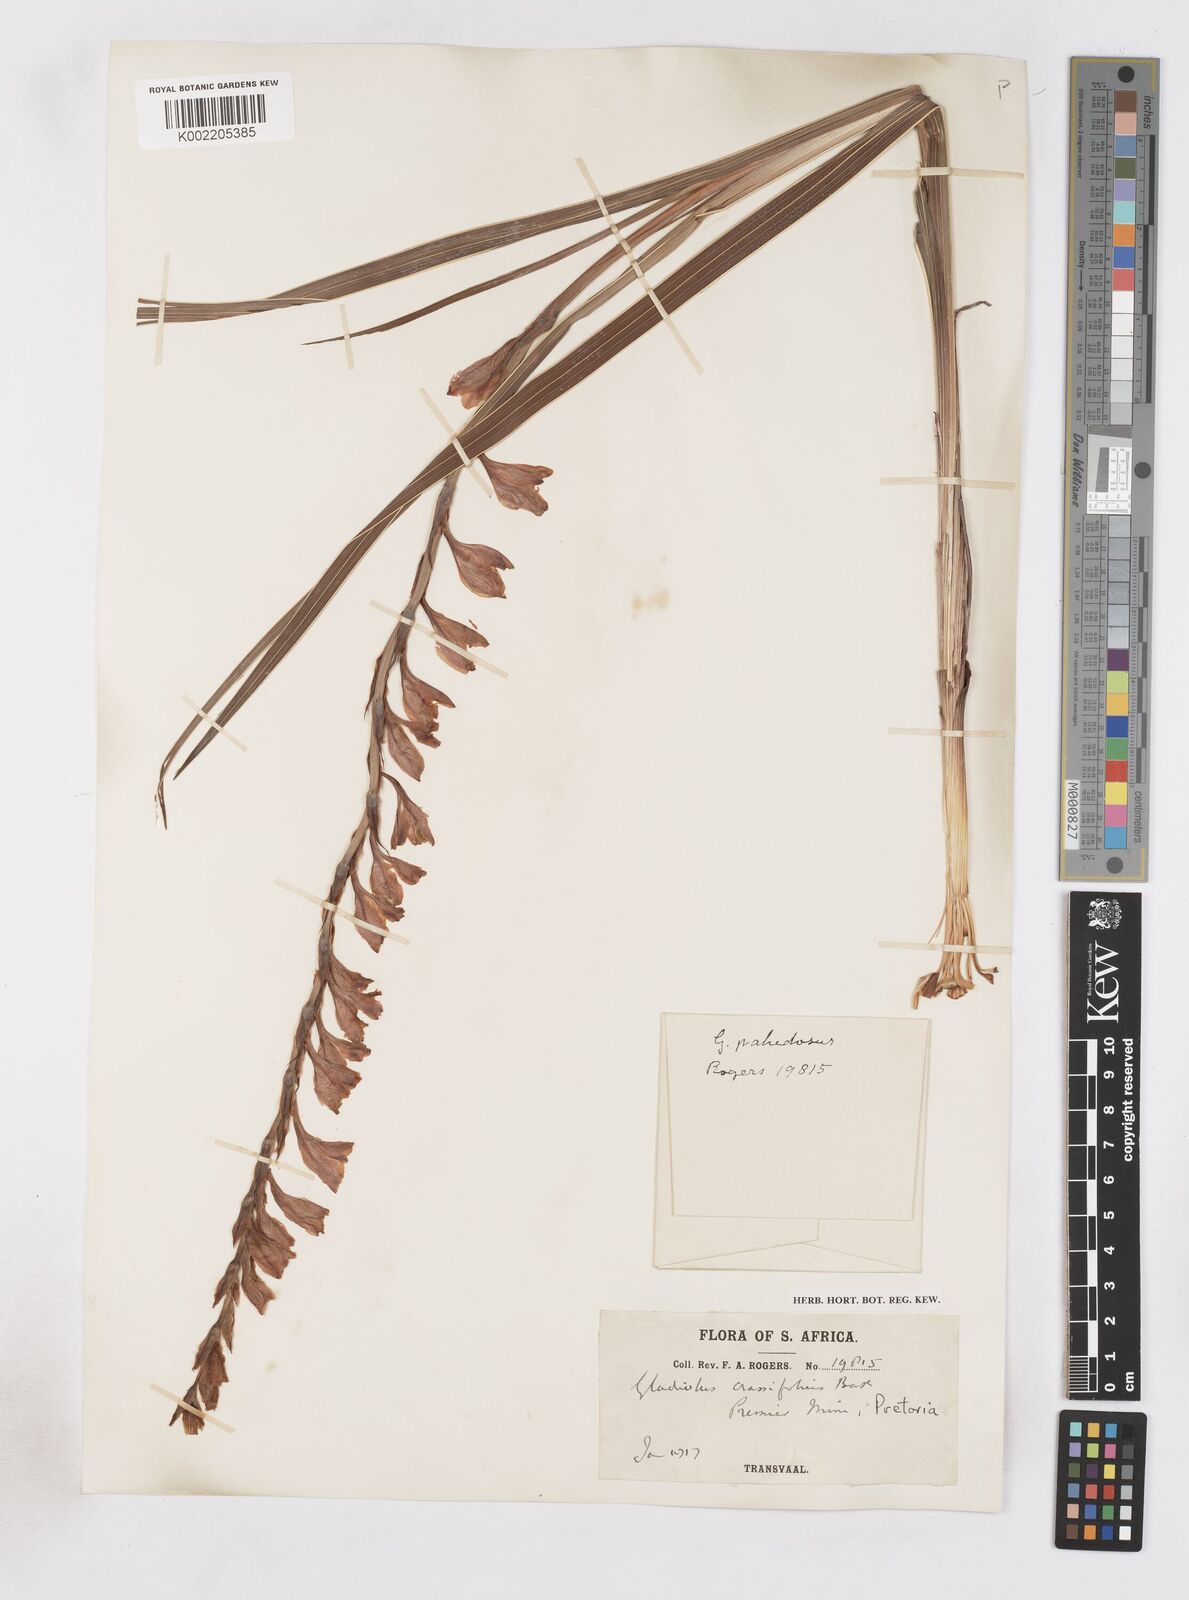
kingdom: Plantae
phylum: Tracheophyta
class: Liliopsida
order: Asparagales
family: Iridaceae
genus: Gladiolus
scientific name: Gladiolus crassifolius
